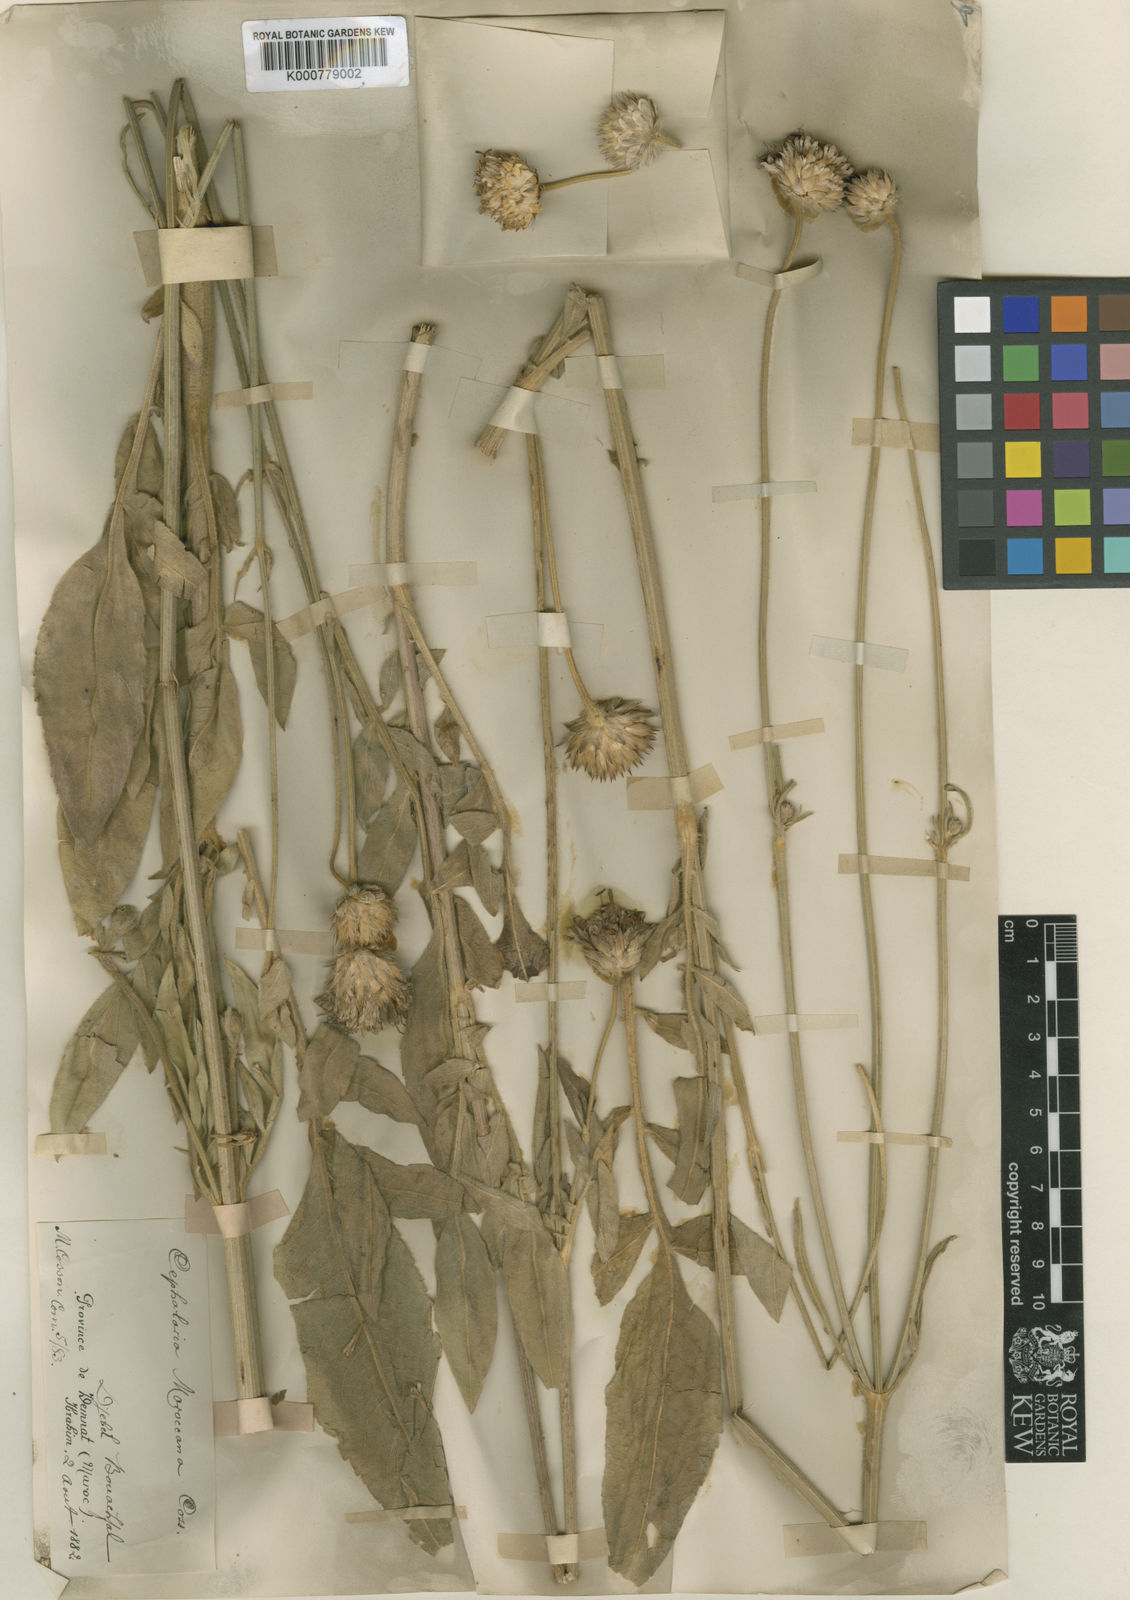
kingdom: Plantae
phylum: Tracheophyta
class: Magnoliopsida
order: Dipsacales
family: Caprifoliaceae
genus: Cephalaria
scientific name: Cephalaria
